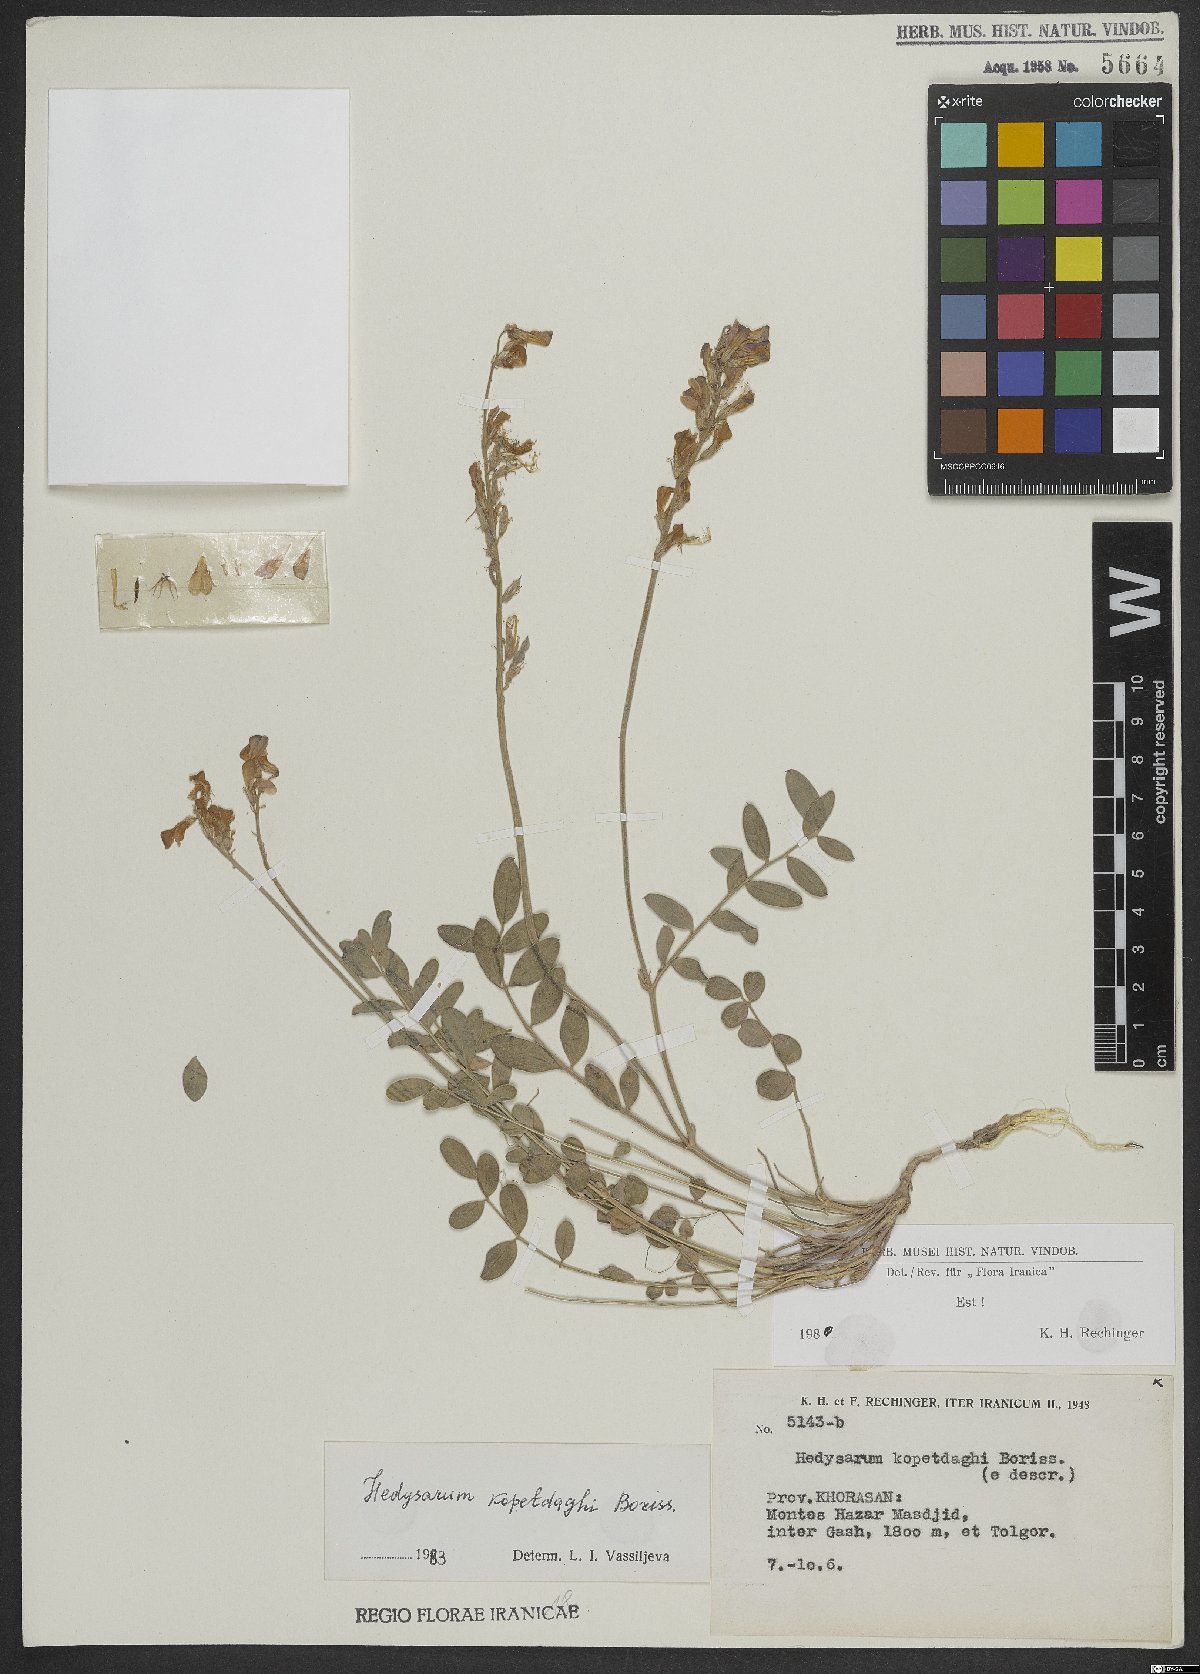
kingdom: Plantae
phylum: Tracheophyta
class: Magnoliopsida
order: Fabales
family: Fabaceae
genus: Hedysarum
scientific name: Hedysarum kopetdaghi
